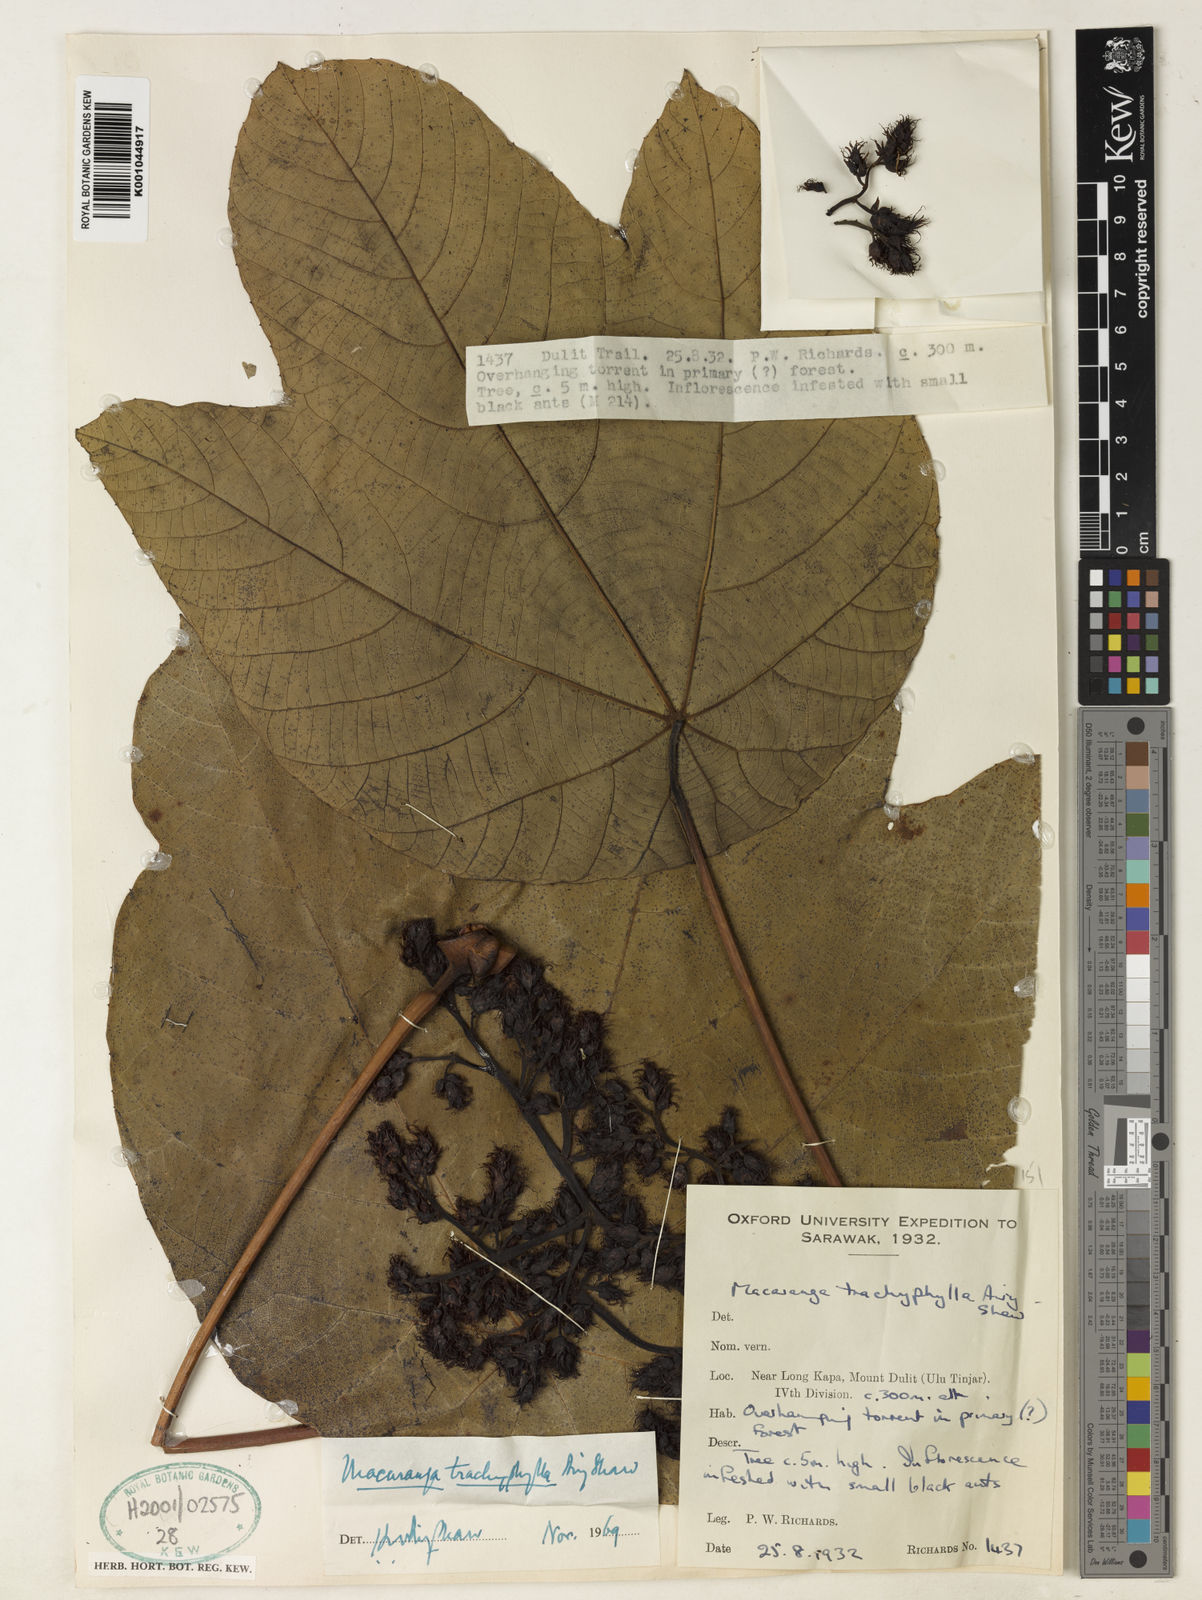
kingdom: Plantae
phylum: Tracheophyta
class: Magnoliopsida
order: Malpighiales
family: Euphorbiaceae
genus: Macaranga
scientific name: Macaranga trachyphylla
